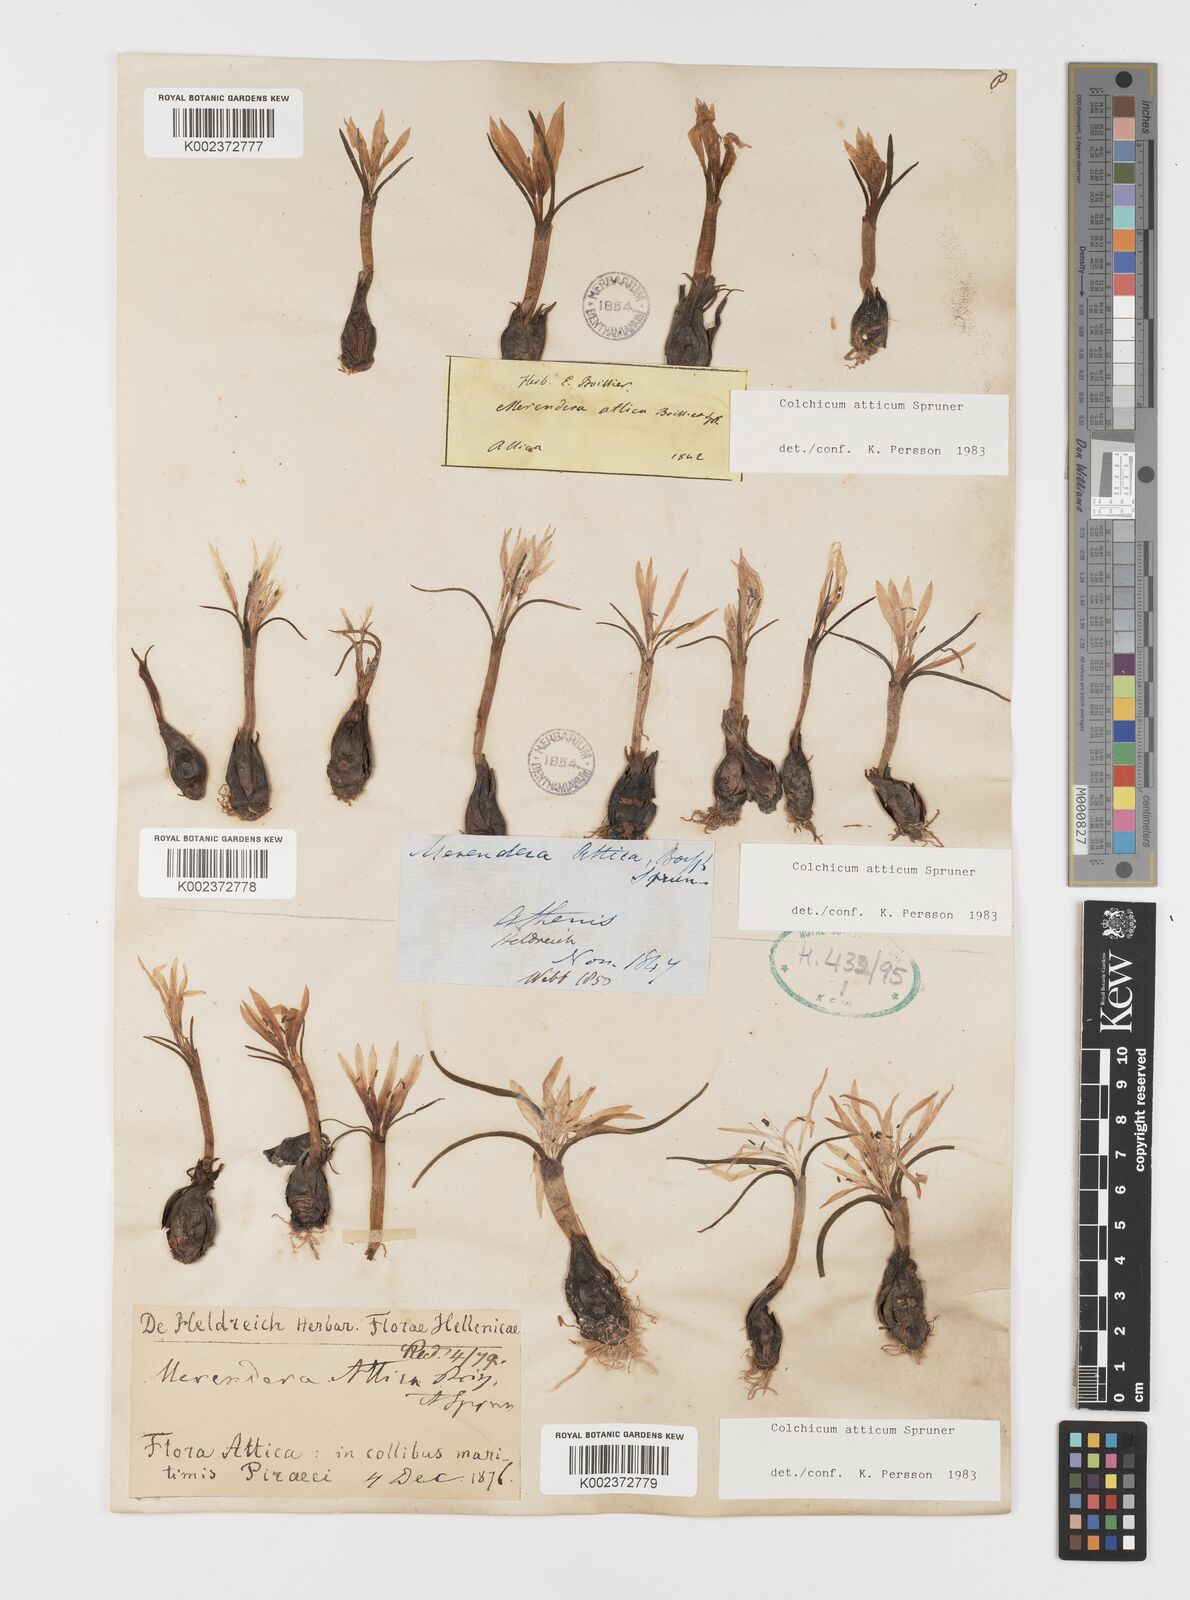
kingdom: Plantae
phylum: Tracheophyta
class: Liliopsida
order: Liliales
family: Colchicaceae
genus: Colchicum
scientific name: Colchicum atticum
